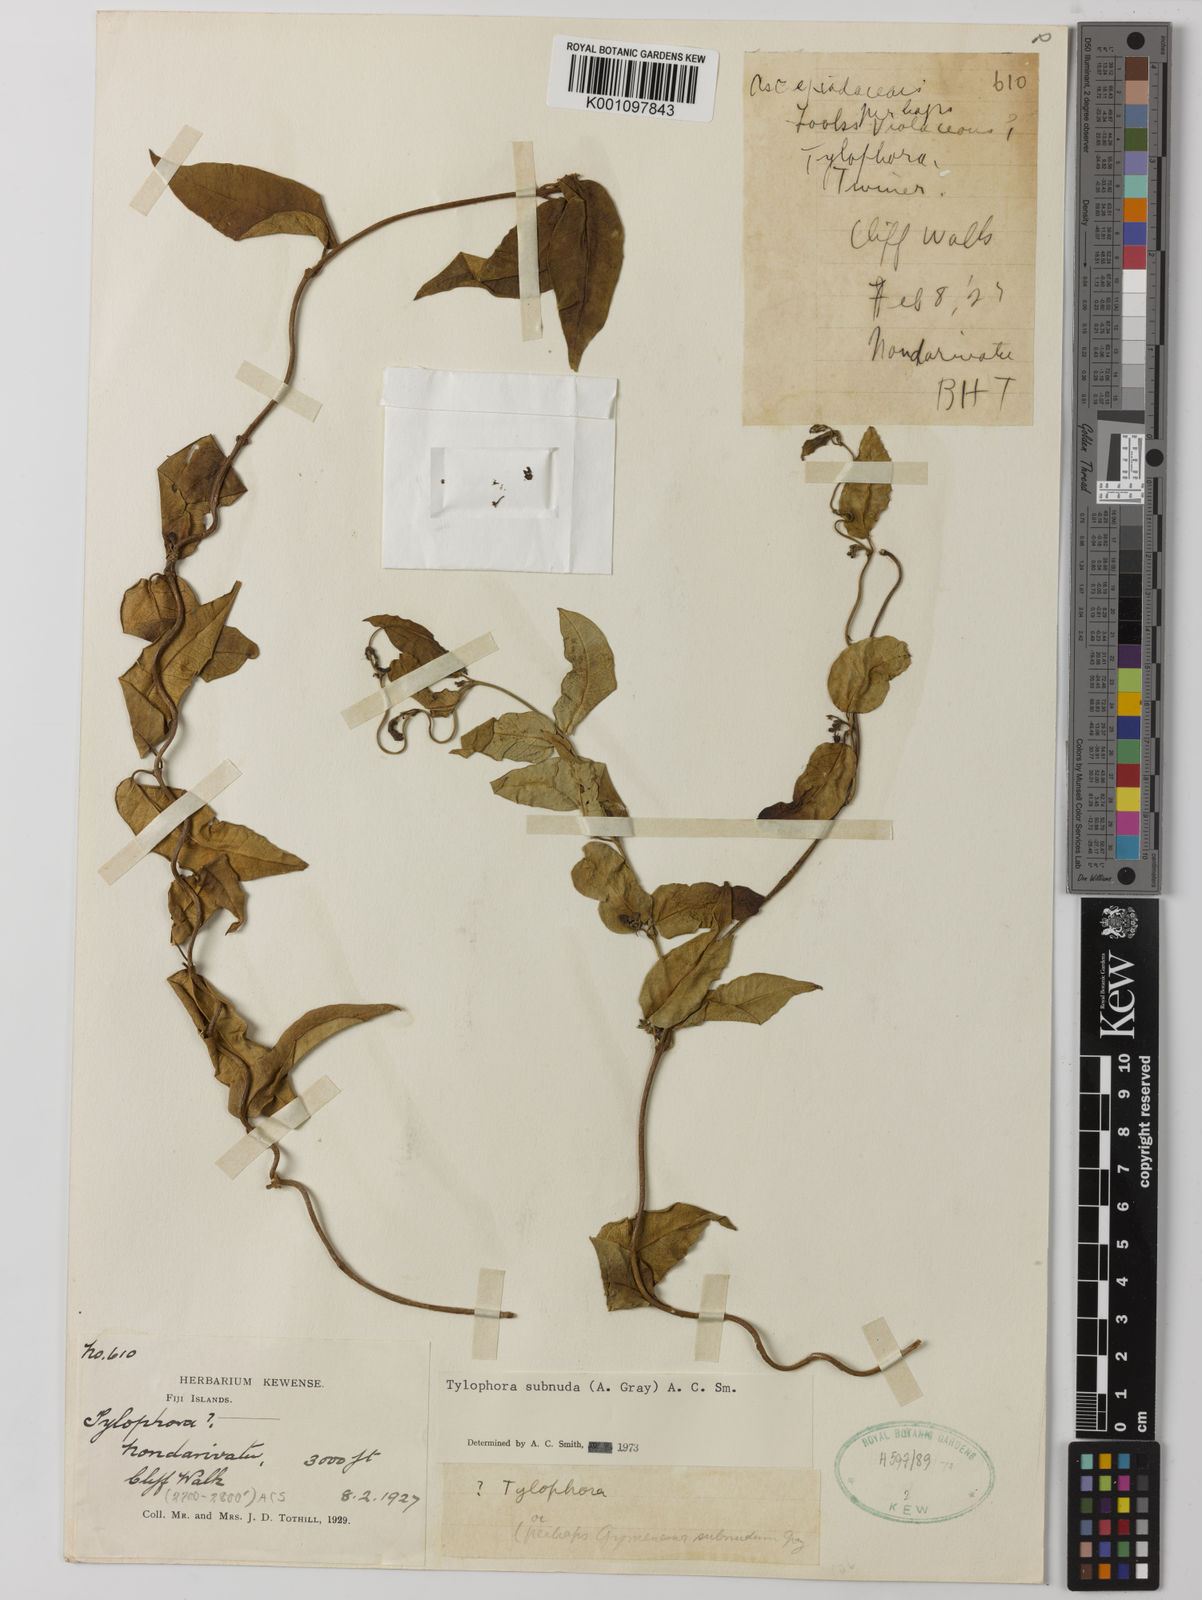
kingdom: Plantae
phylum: Tracheophyta
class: Magnoliopsida
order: Gentianales
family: Apocynaceae
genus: Sarcolobus
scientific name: Sarcolobus subnudus
